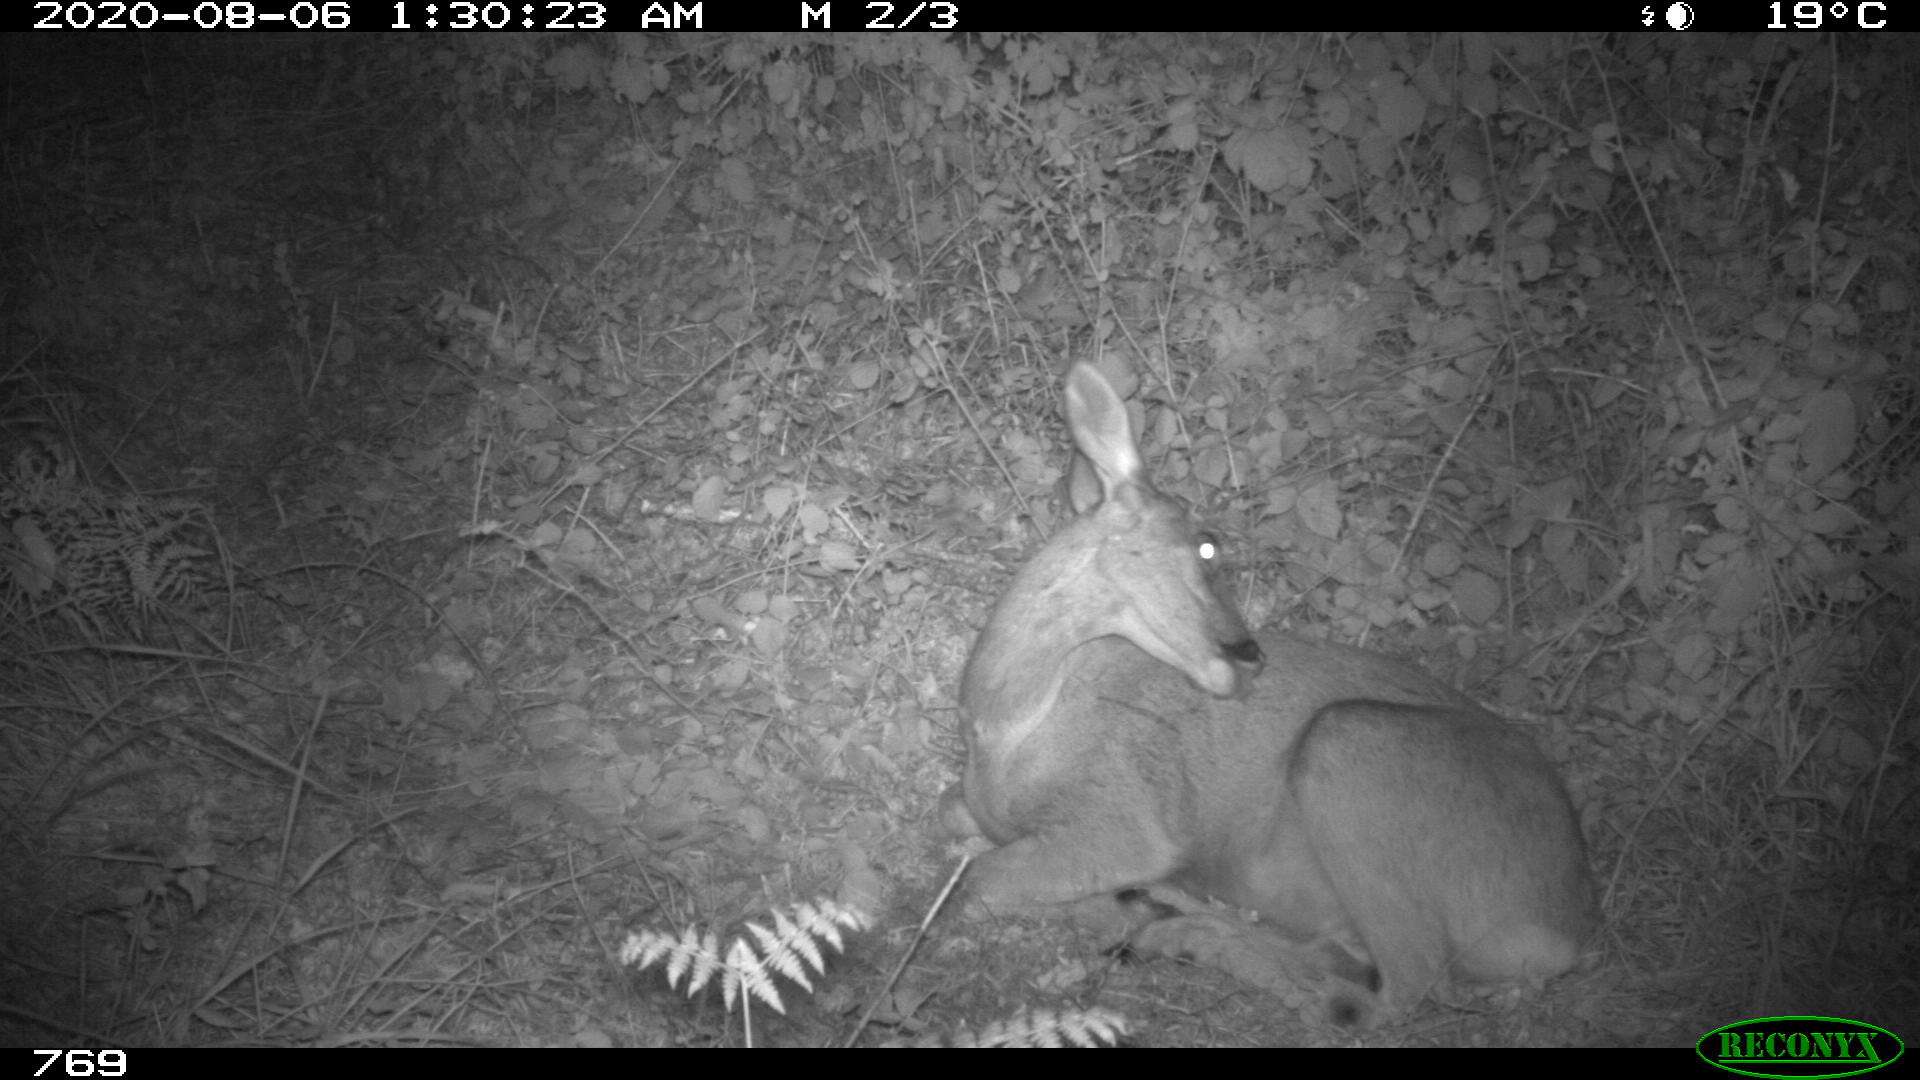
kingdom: Animalia
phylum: Chordata
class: Mammalia
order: Artiodactyla
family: Cervidae
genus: Capreolus
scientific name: Capreolus capreolus
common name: Western roe deer
